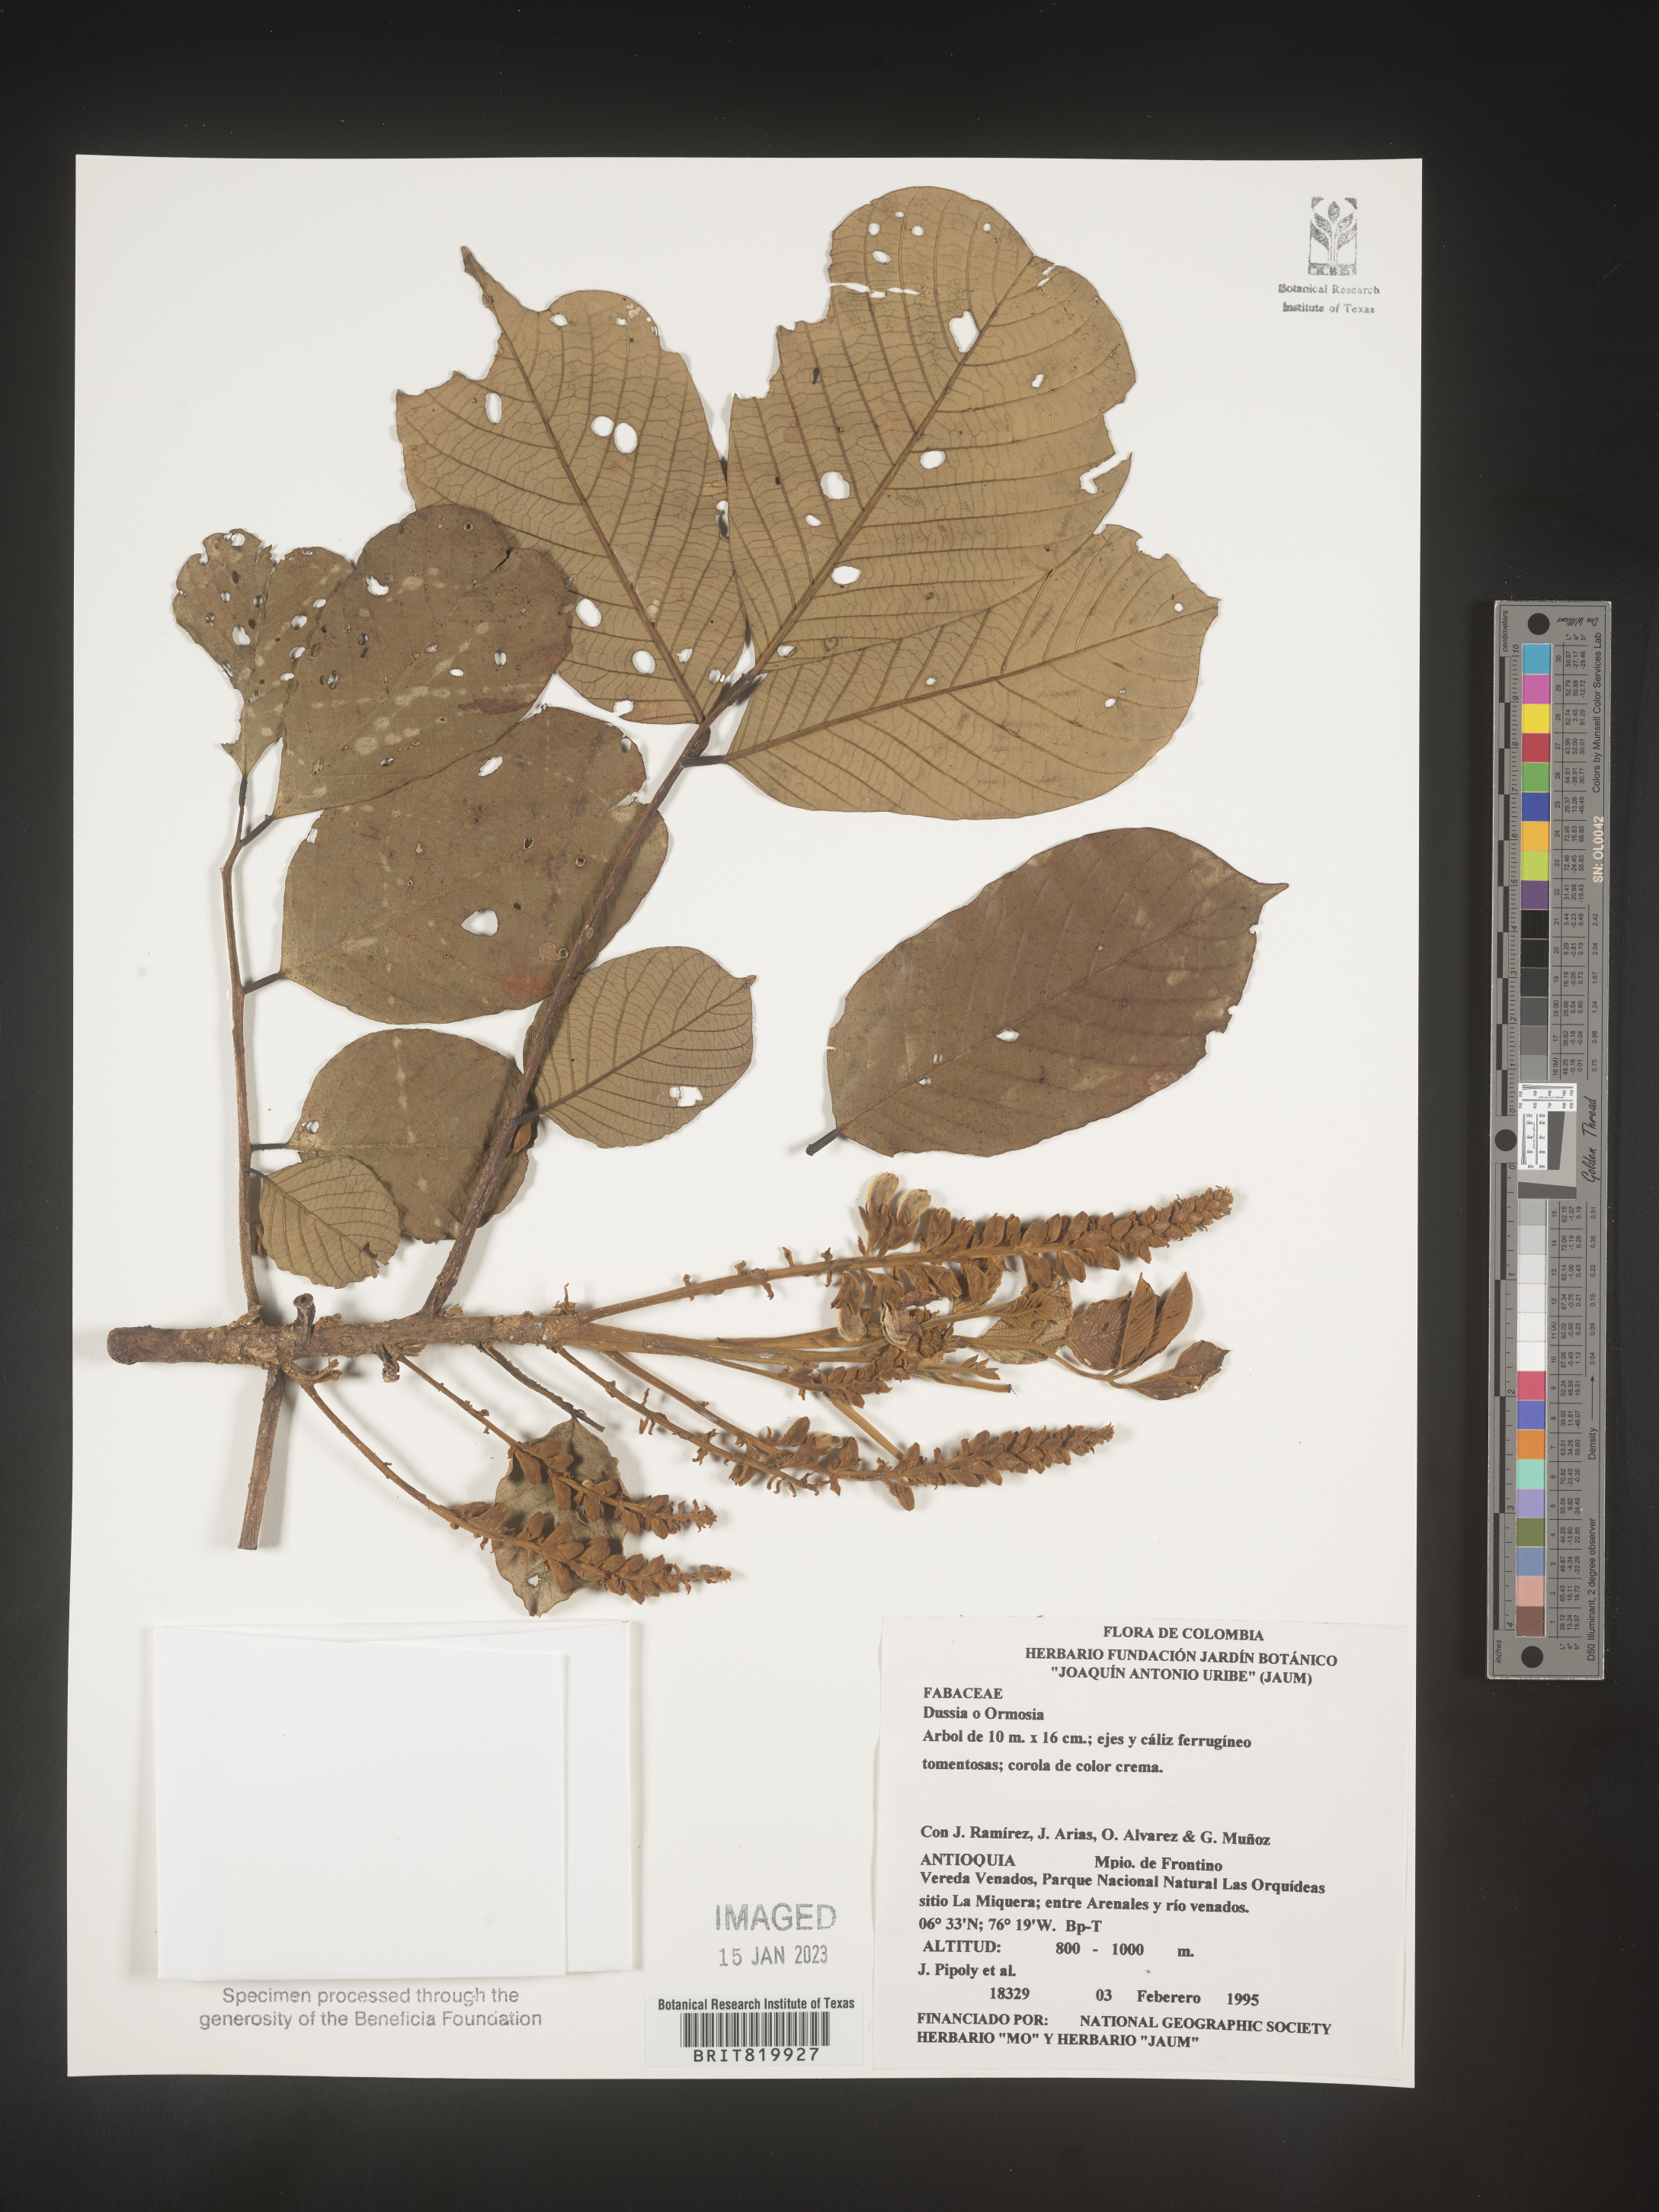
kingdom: Plantae
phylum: Tracheophyta
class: Magnoliopsida
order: Fabales
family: Fabaceae
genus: Dussia
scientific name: Dussia
